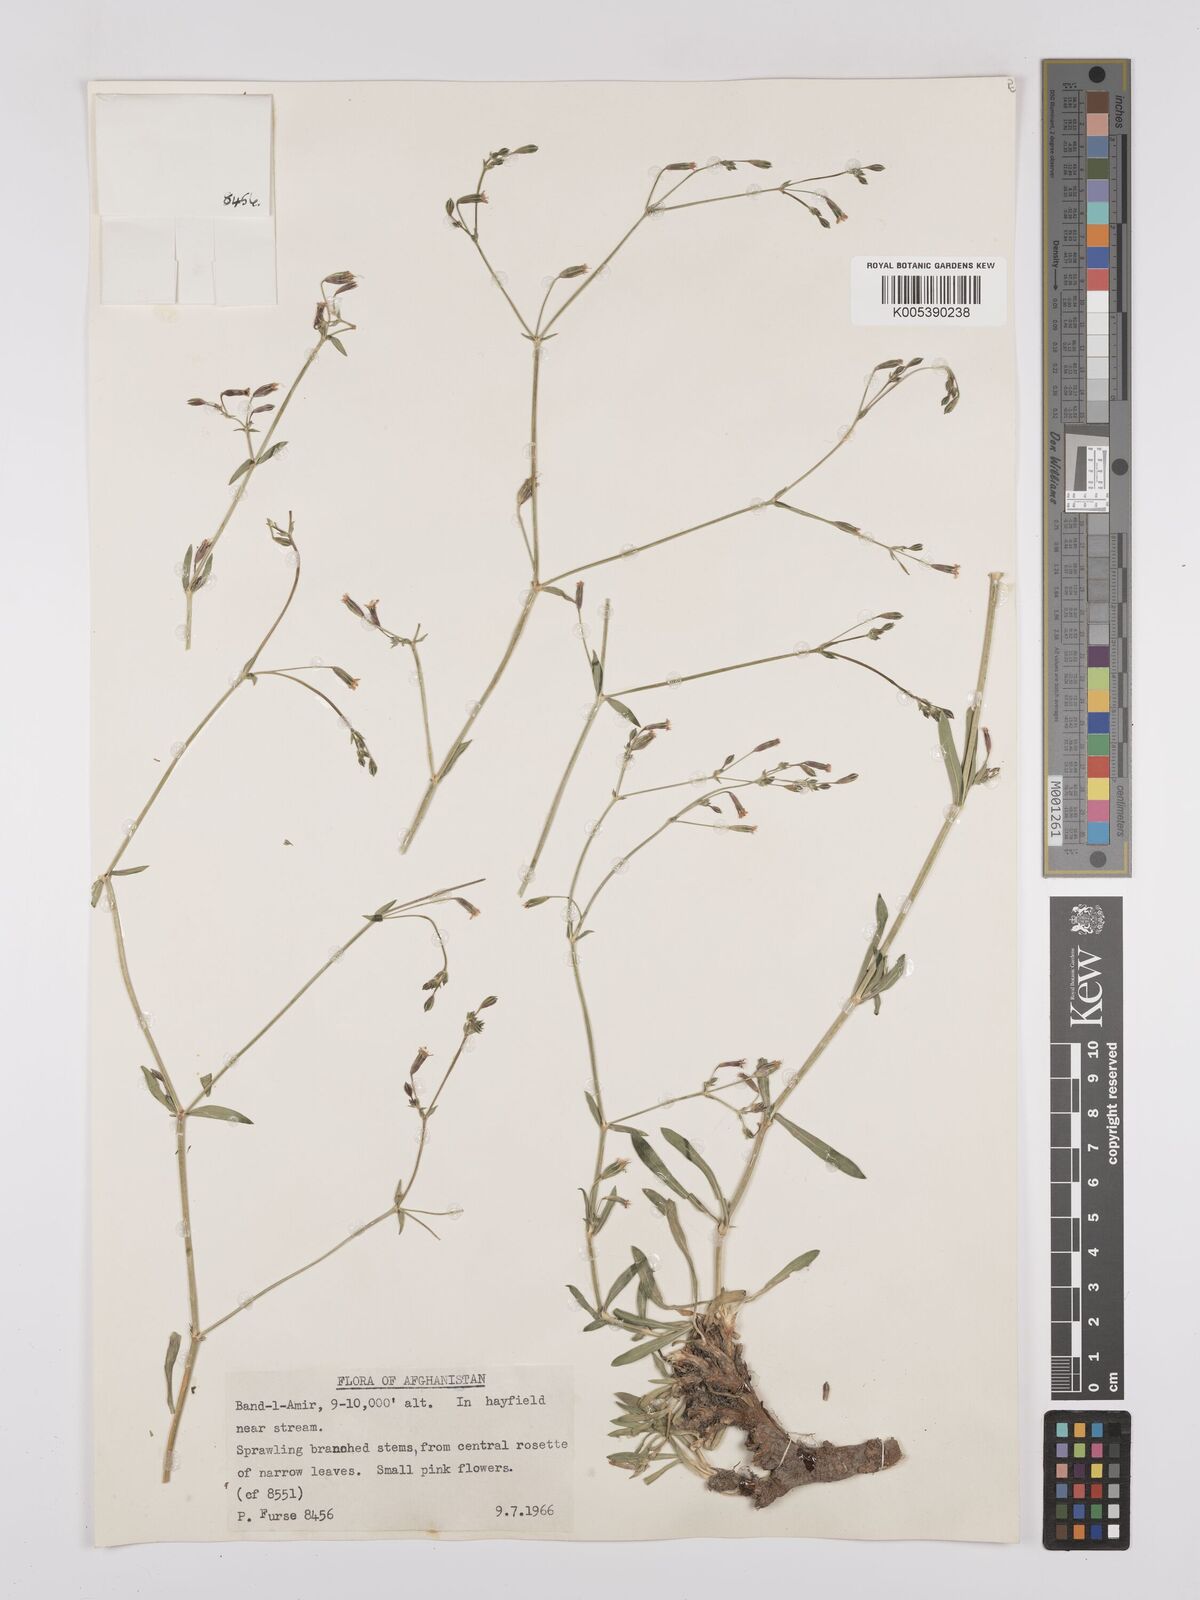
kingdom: Plantae
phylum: Tracheophyta
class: Magnoliopsida
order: Caryophyllales
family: Caryophyllaceae
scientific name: Caryophyllaceae
